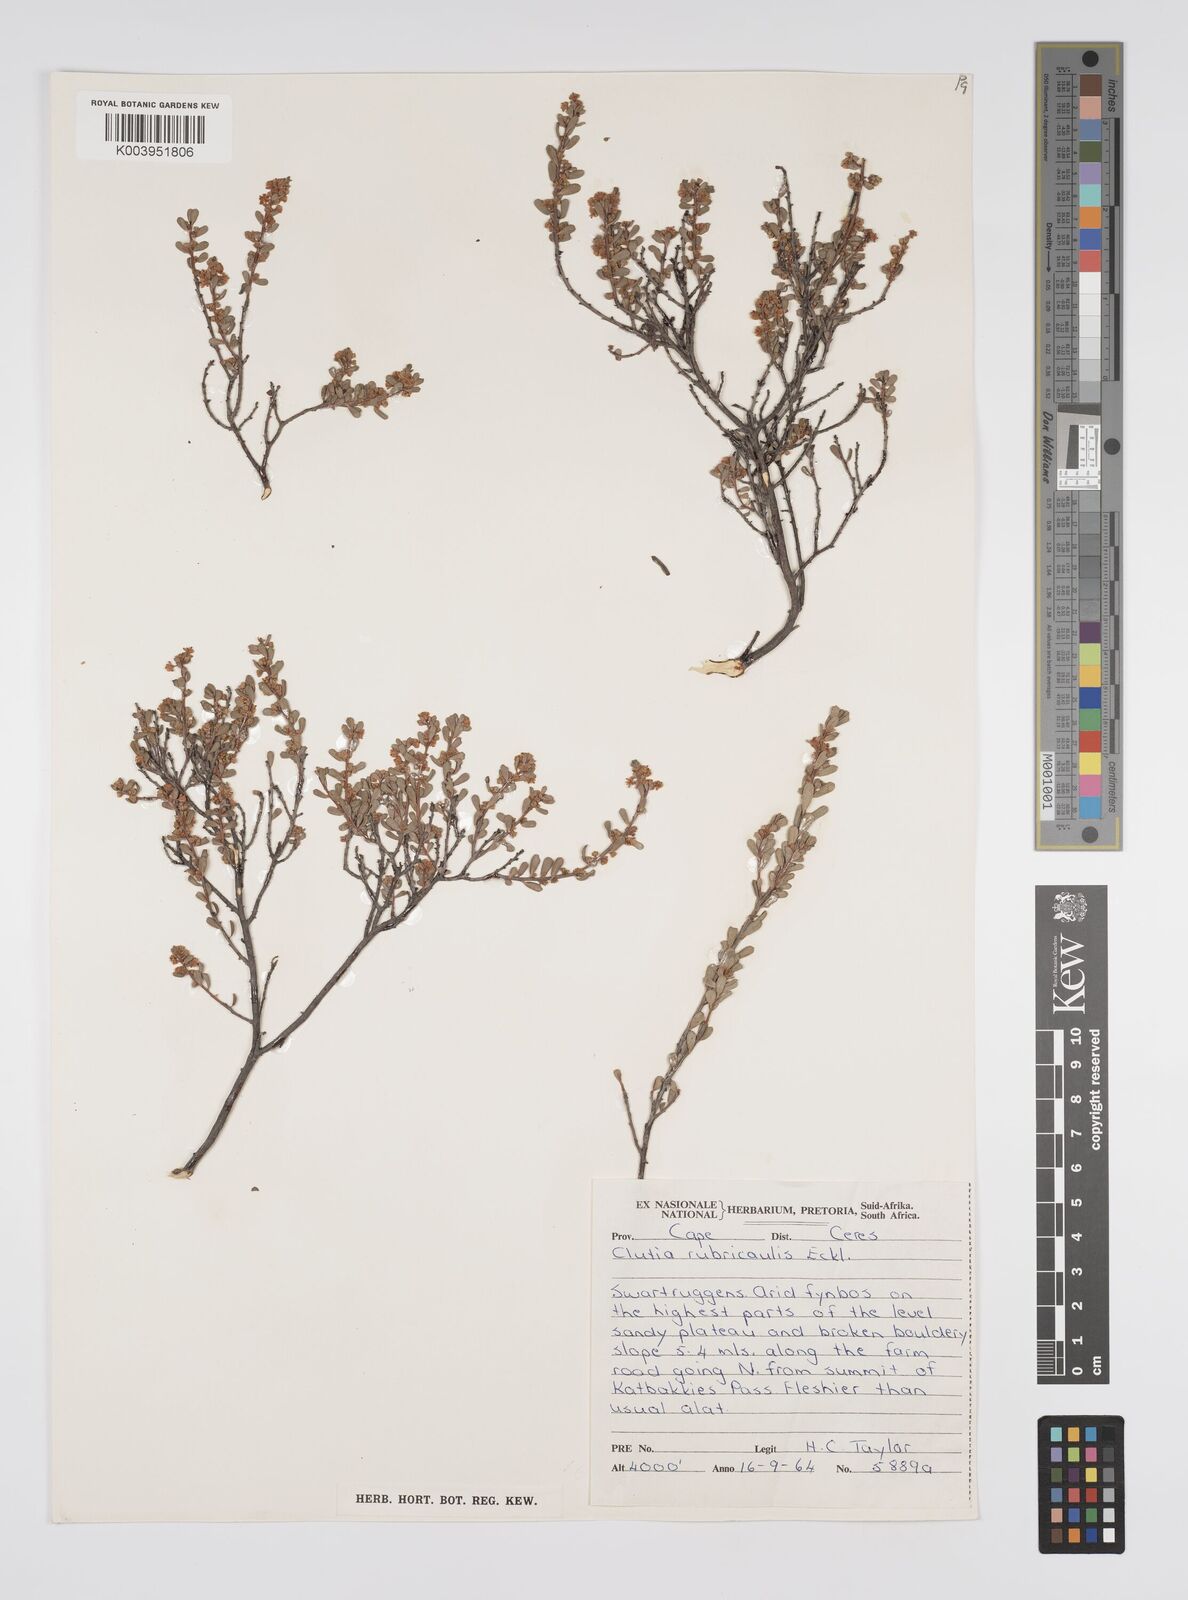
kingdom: Plantae
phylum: Tracheophyta
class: Magnoliopsida
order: Malpighiales
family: Peraceae
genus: Clutia
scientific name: Clutia rubricaulis
